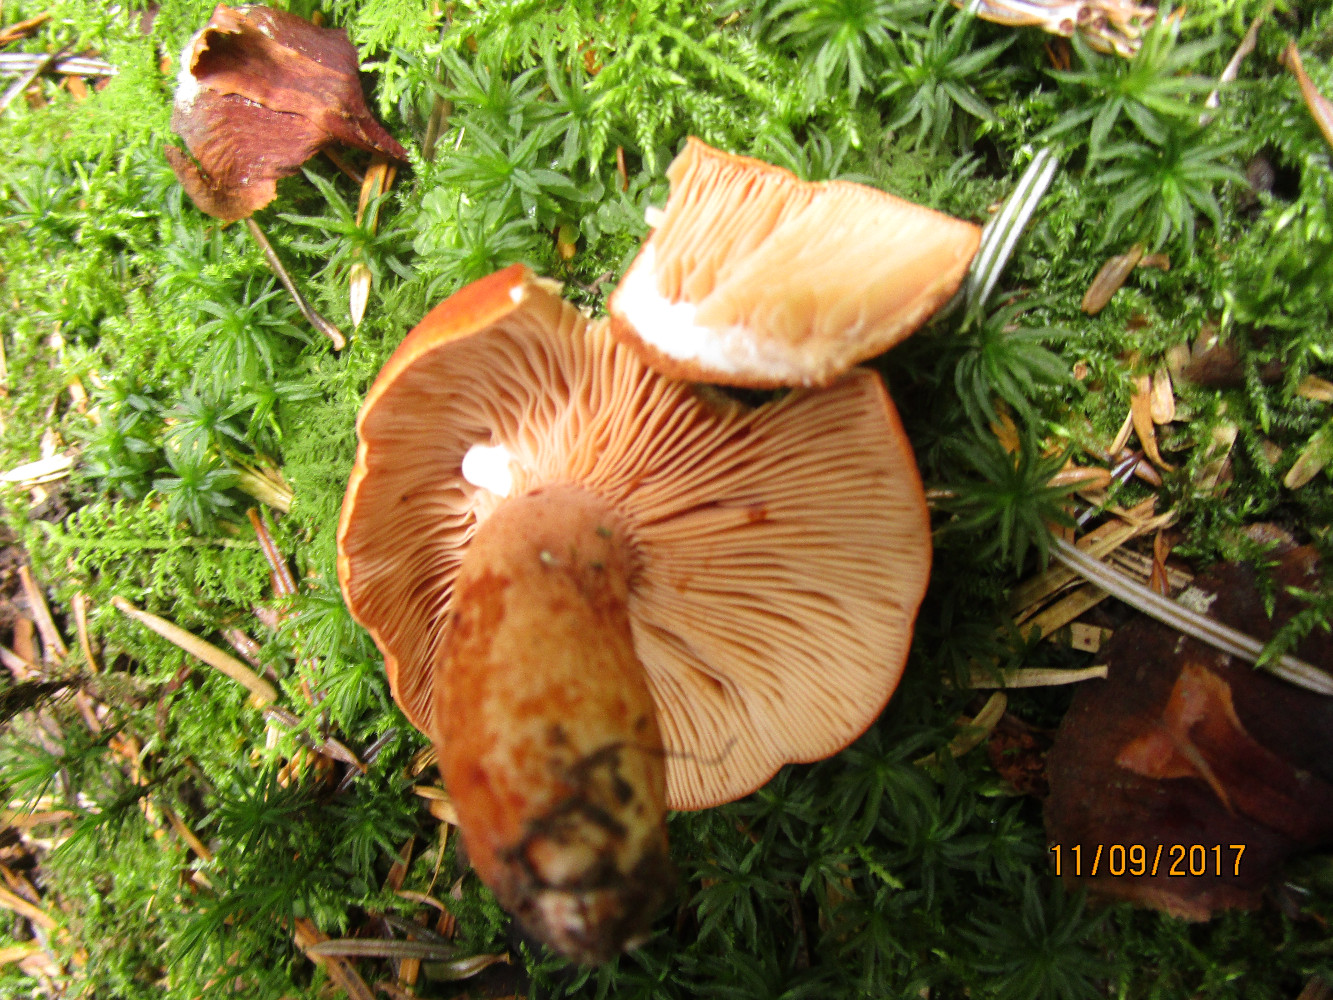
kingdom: Fungi
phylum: Basidiomycota
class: Agaricomycetes
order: Russulales
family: Russulaceae
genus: Lactifluus
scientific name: Lactifluus volemus
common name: spiselig mælkehat
